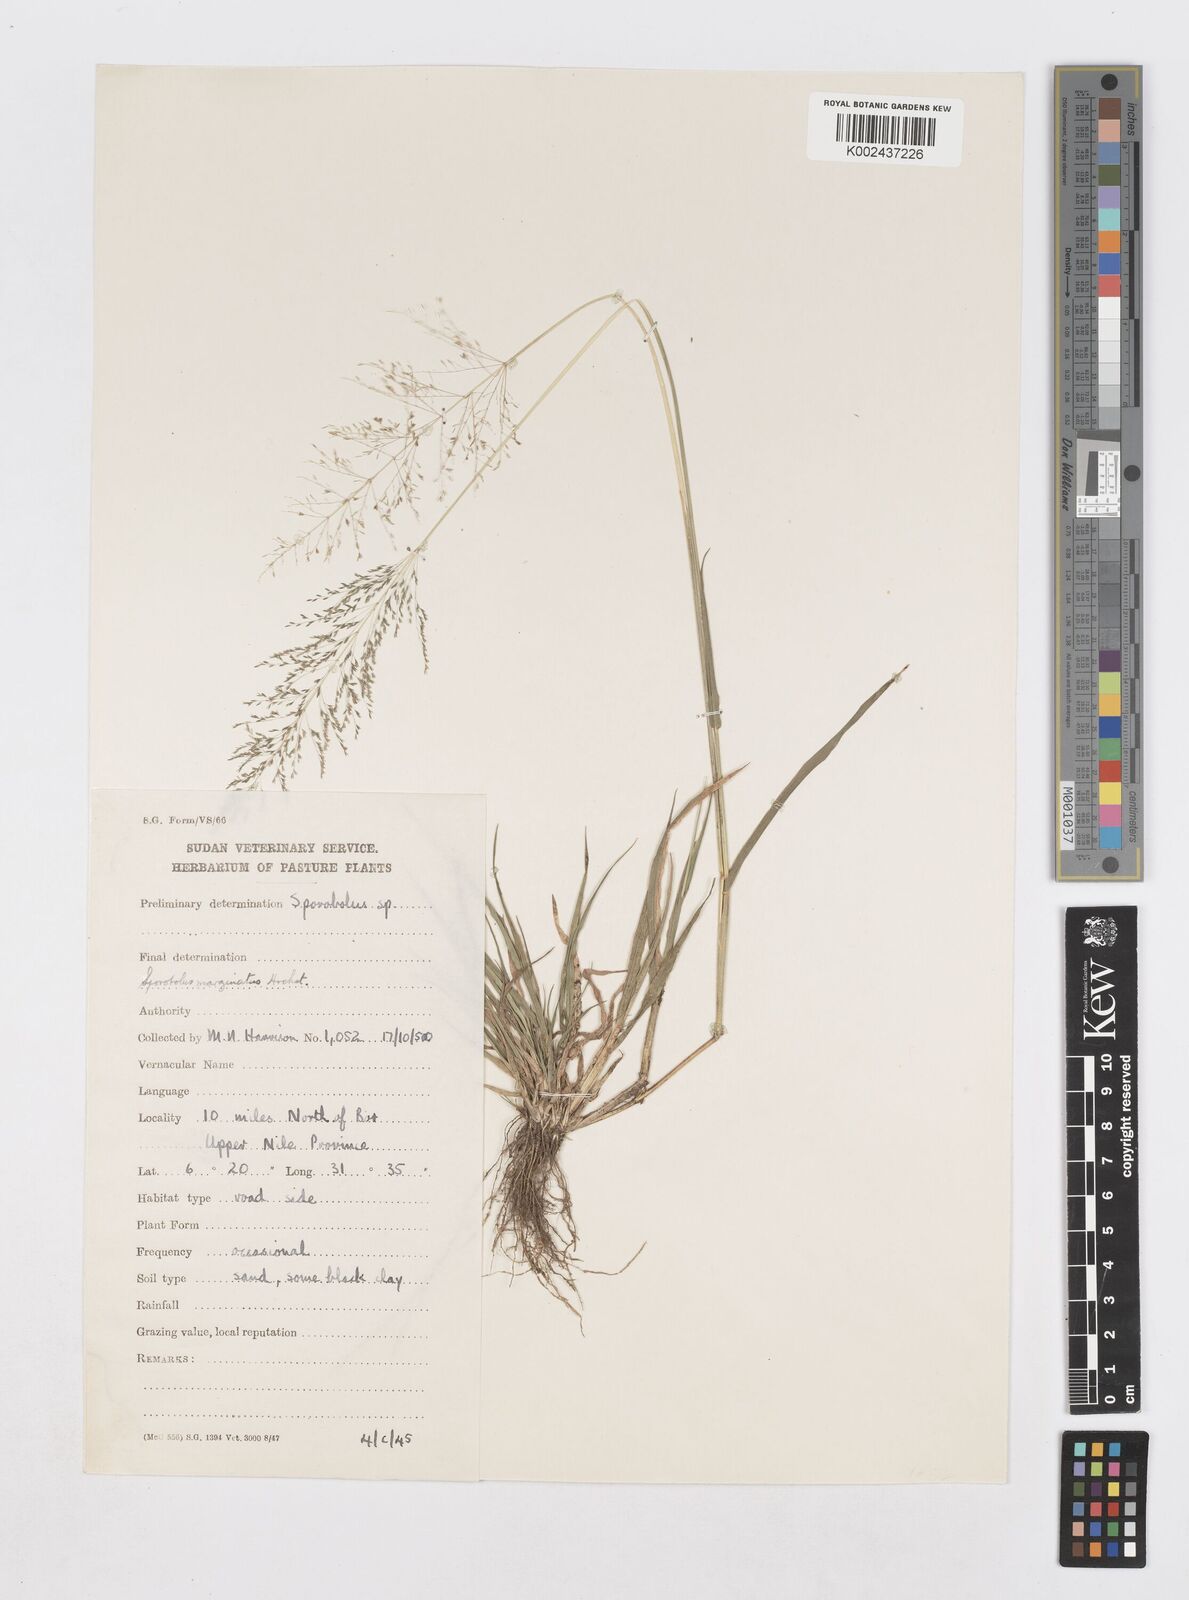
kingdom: Plantae
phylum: Tracheophyta
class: Liliopsida
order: Poales
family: Poaceae
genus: Sporobolus
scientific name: Sporobolus ioclados
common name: Pan dropseed
